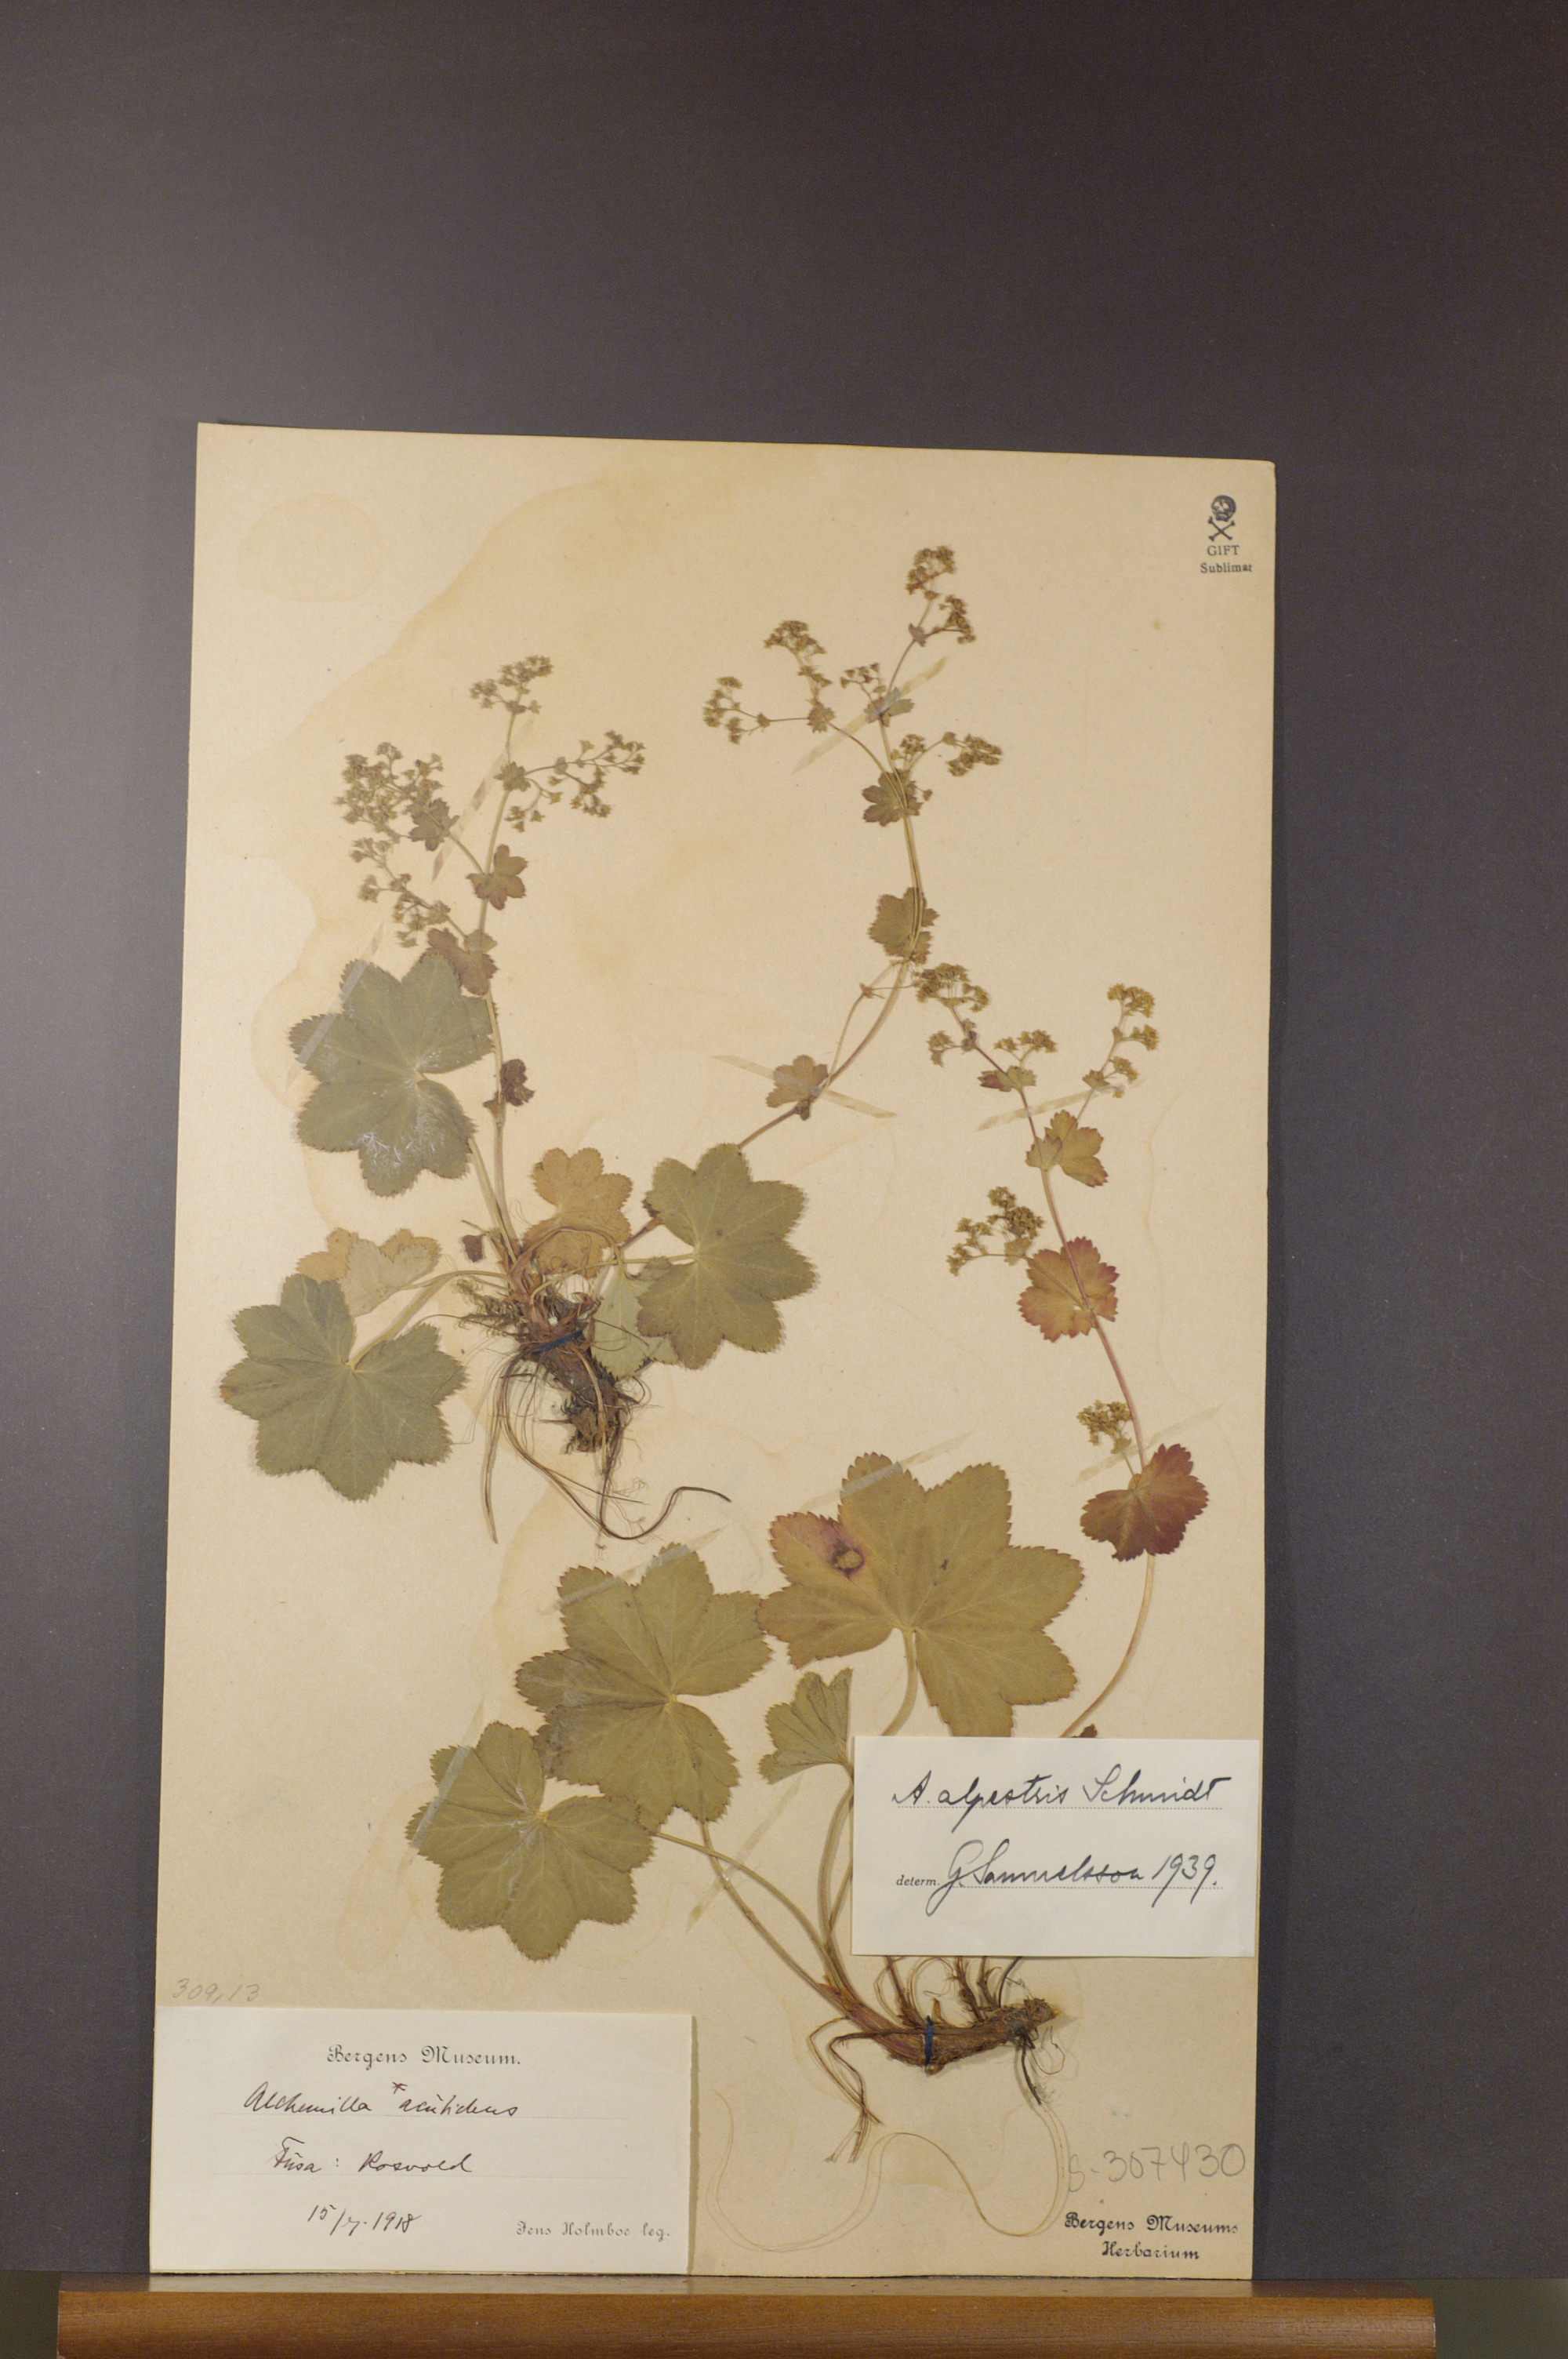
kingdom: Plantae
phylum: Tracheophyta
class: Magnoliopsida
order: Rosales
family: Rosaceae
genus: Alchemilla
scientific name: Alchemilla glabra
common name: Smooth lady's-mantle
